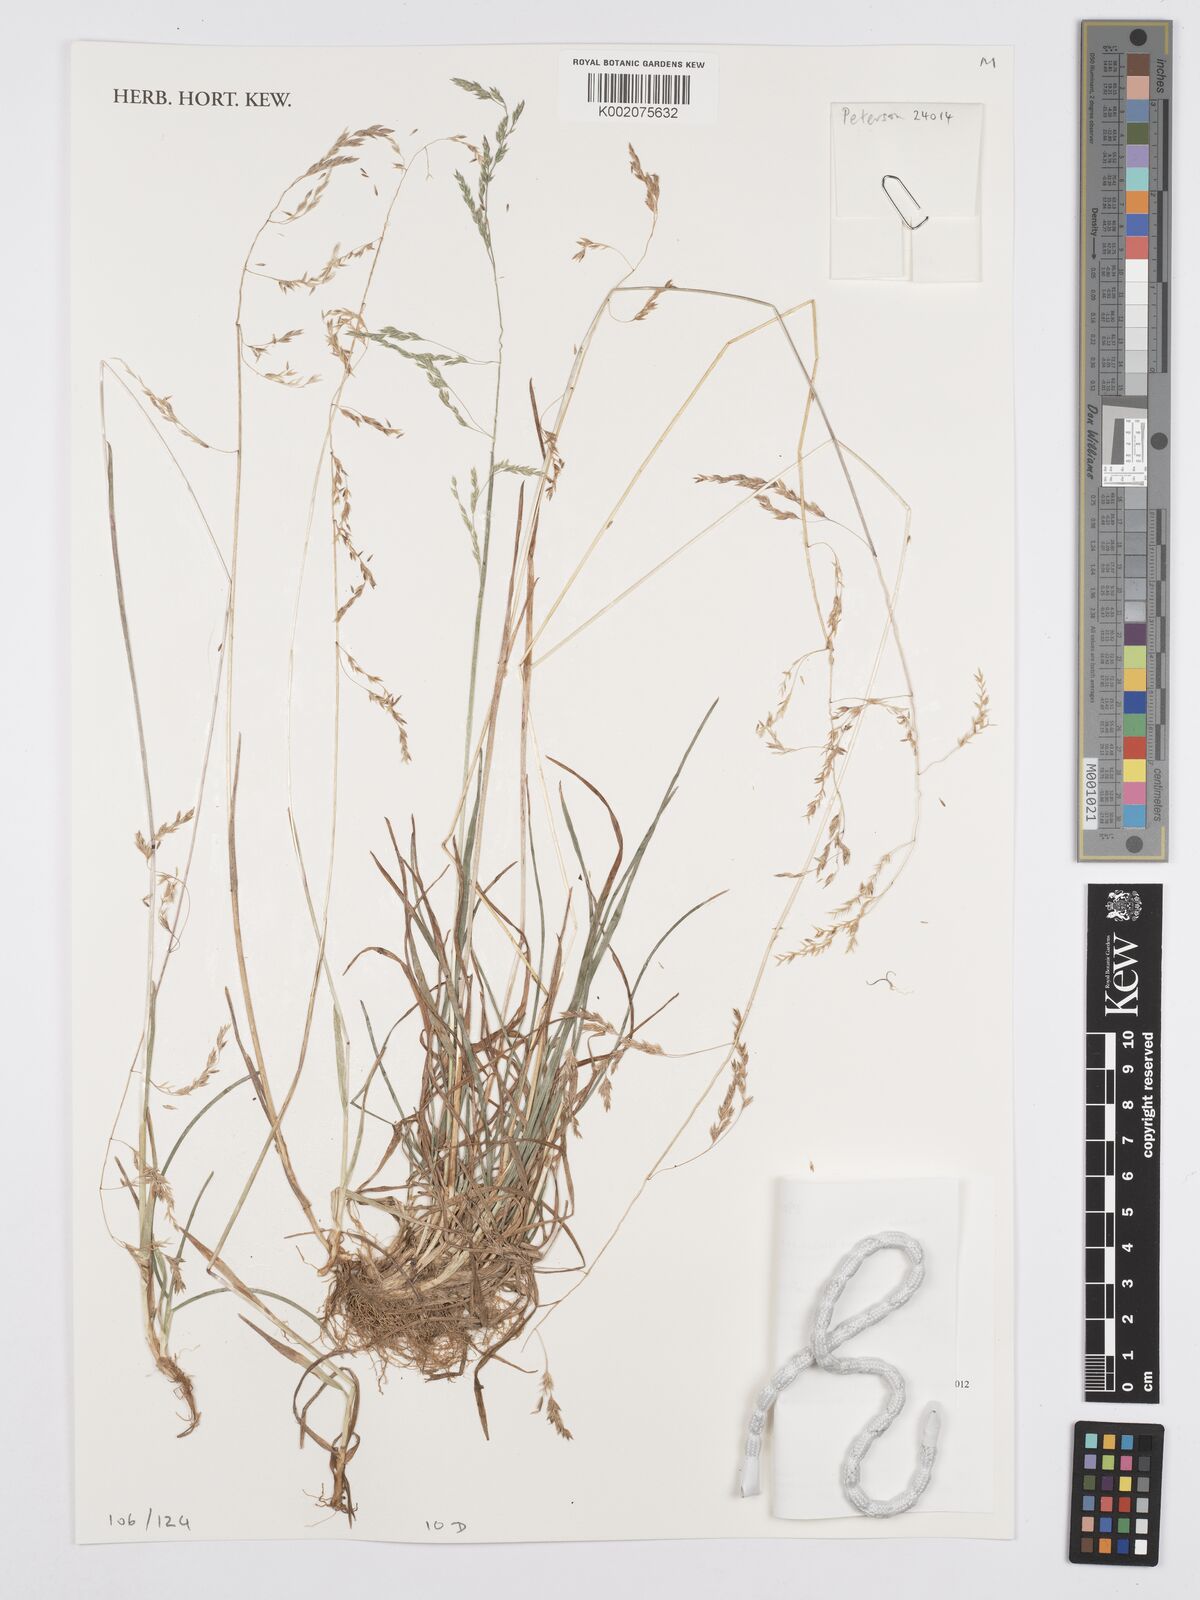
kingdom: Plantae
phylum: Tracheophyta
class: Liliopsida
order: Poales
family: Poaceae
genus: Poa
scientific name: Poa schimperiana
